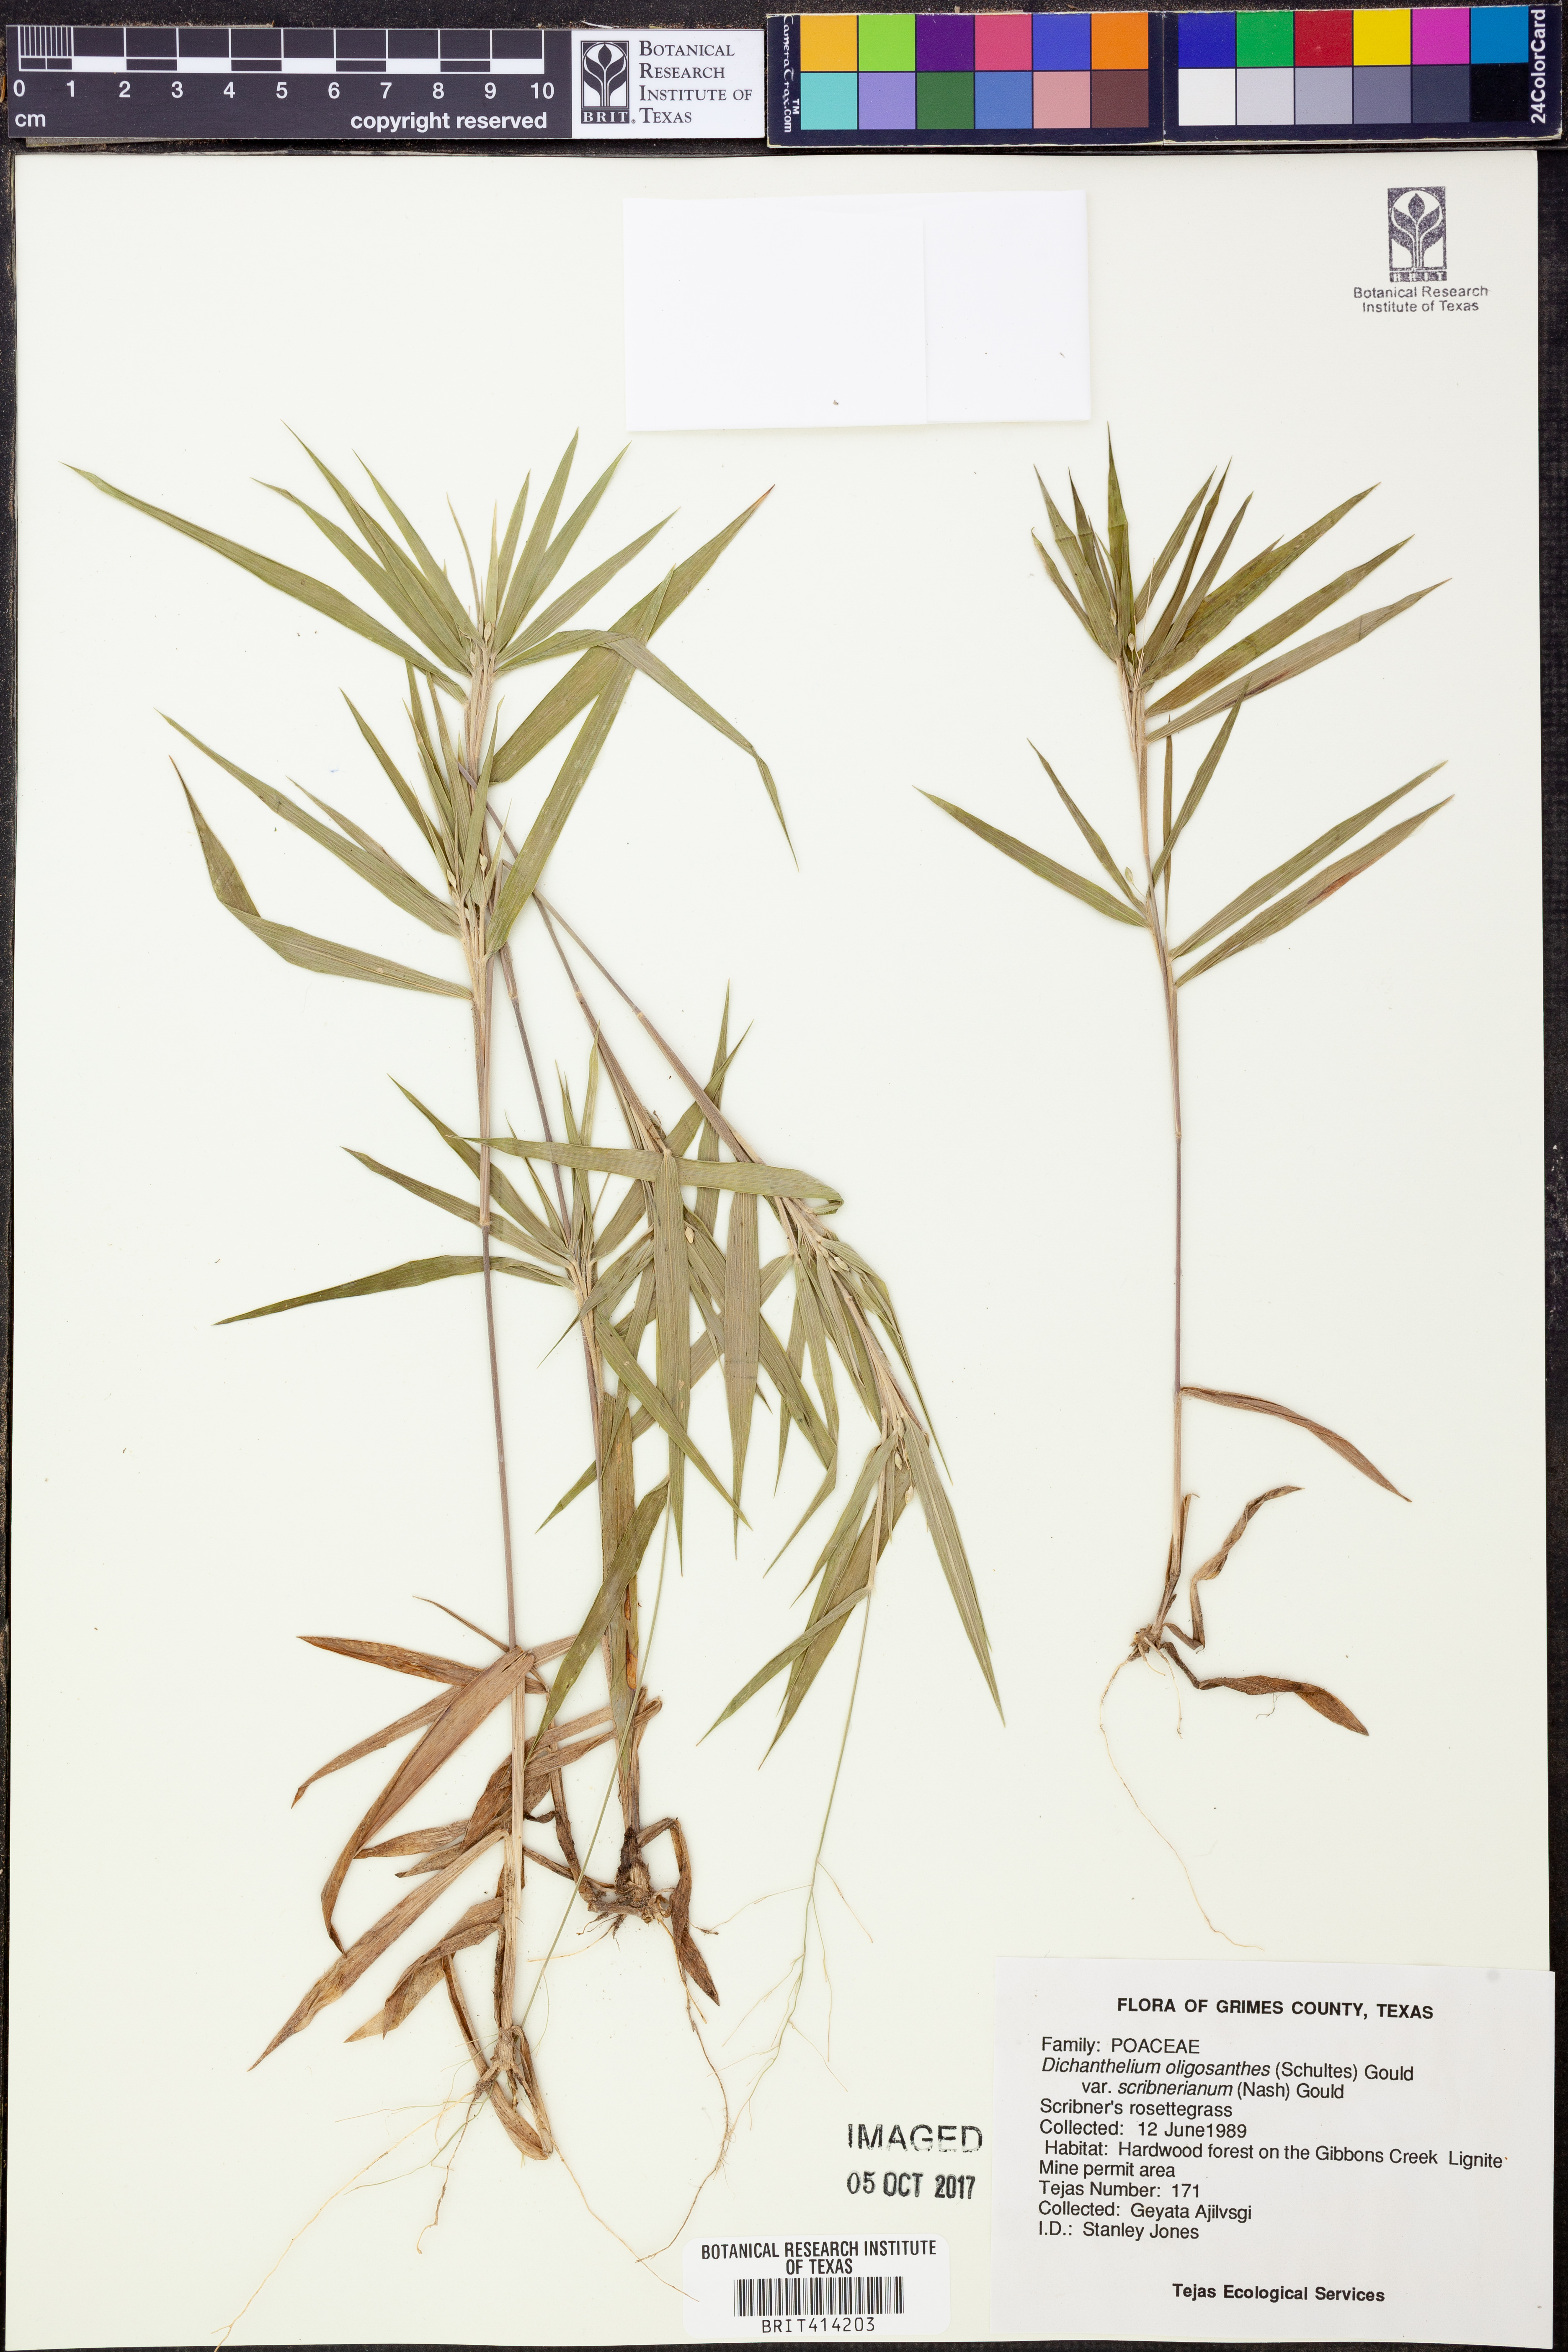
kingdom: Plantae
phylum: Tracheophyta
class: Liliopsida
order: Poales
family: Poaceae
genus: Dichanthelium
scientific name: Dichanthelium scribnerianum
